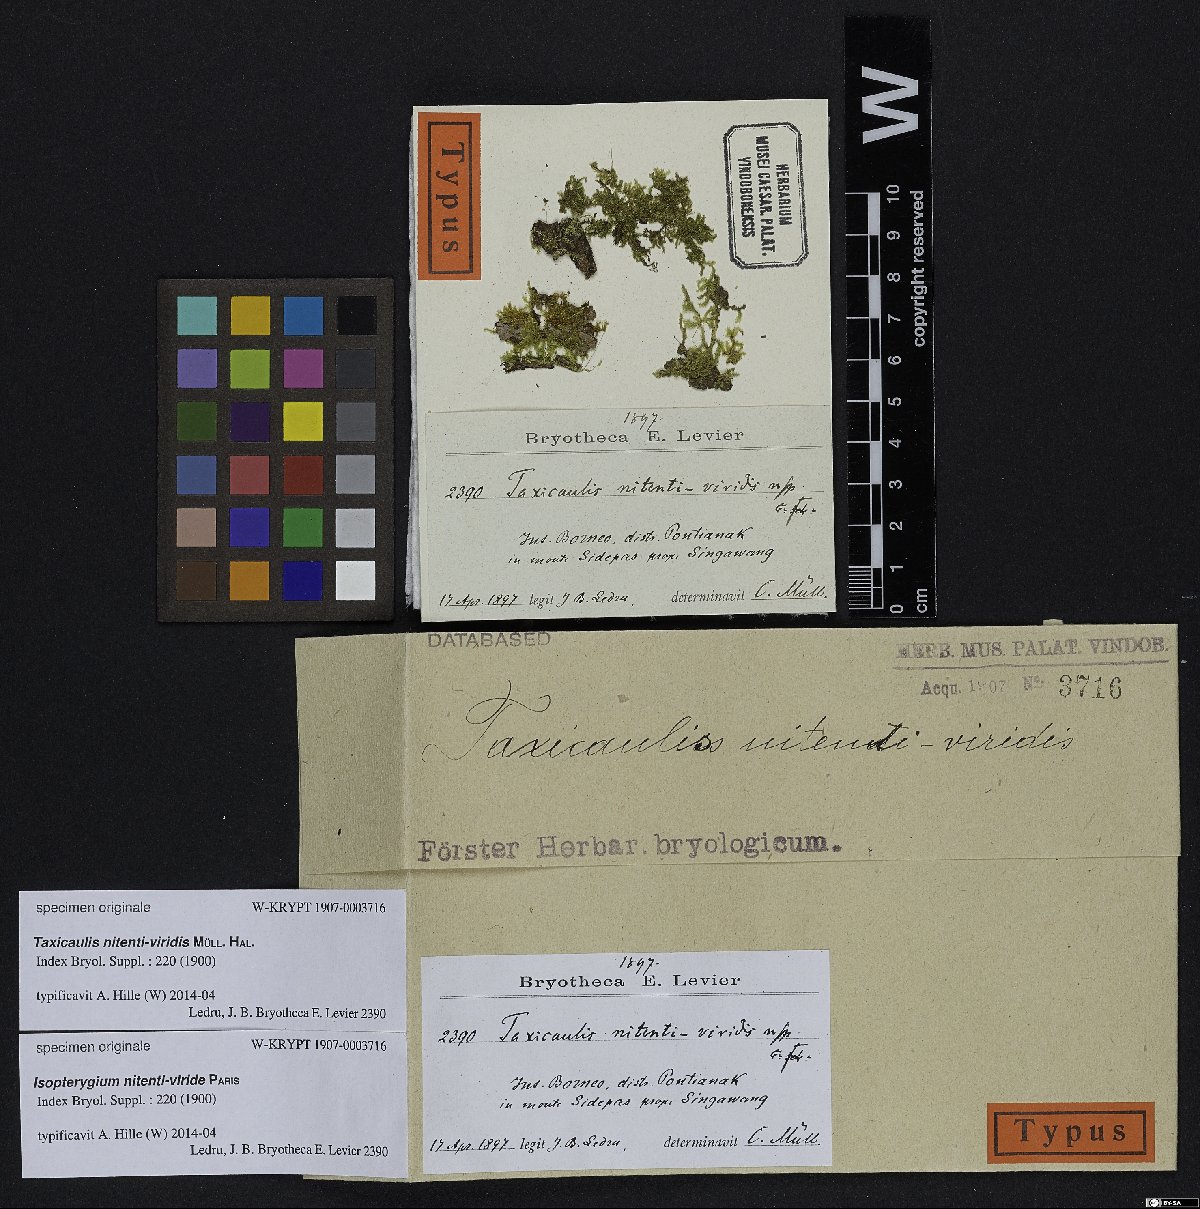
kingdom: Plantae
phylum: Bryophyta
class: Bryopsida
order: Hypnales
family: Hypnaceae
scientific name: Hypnaceae
